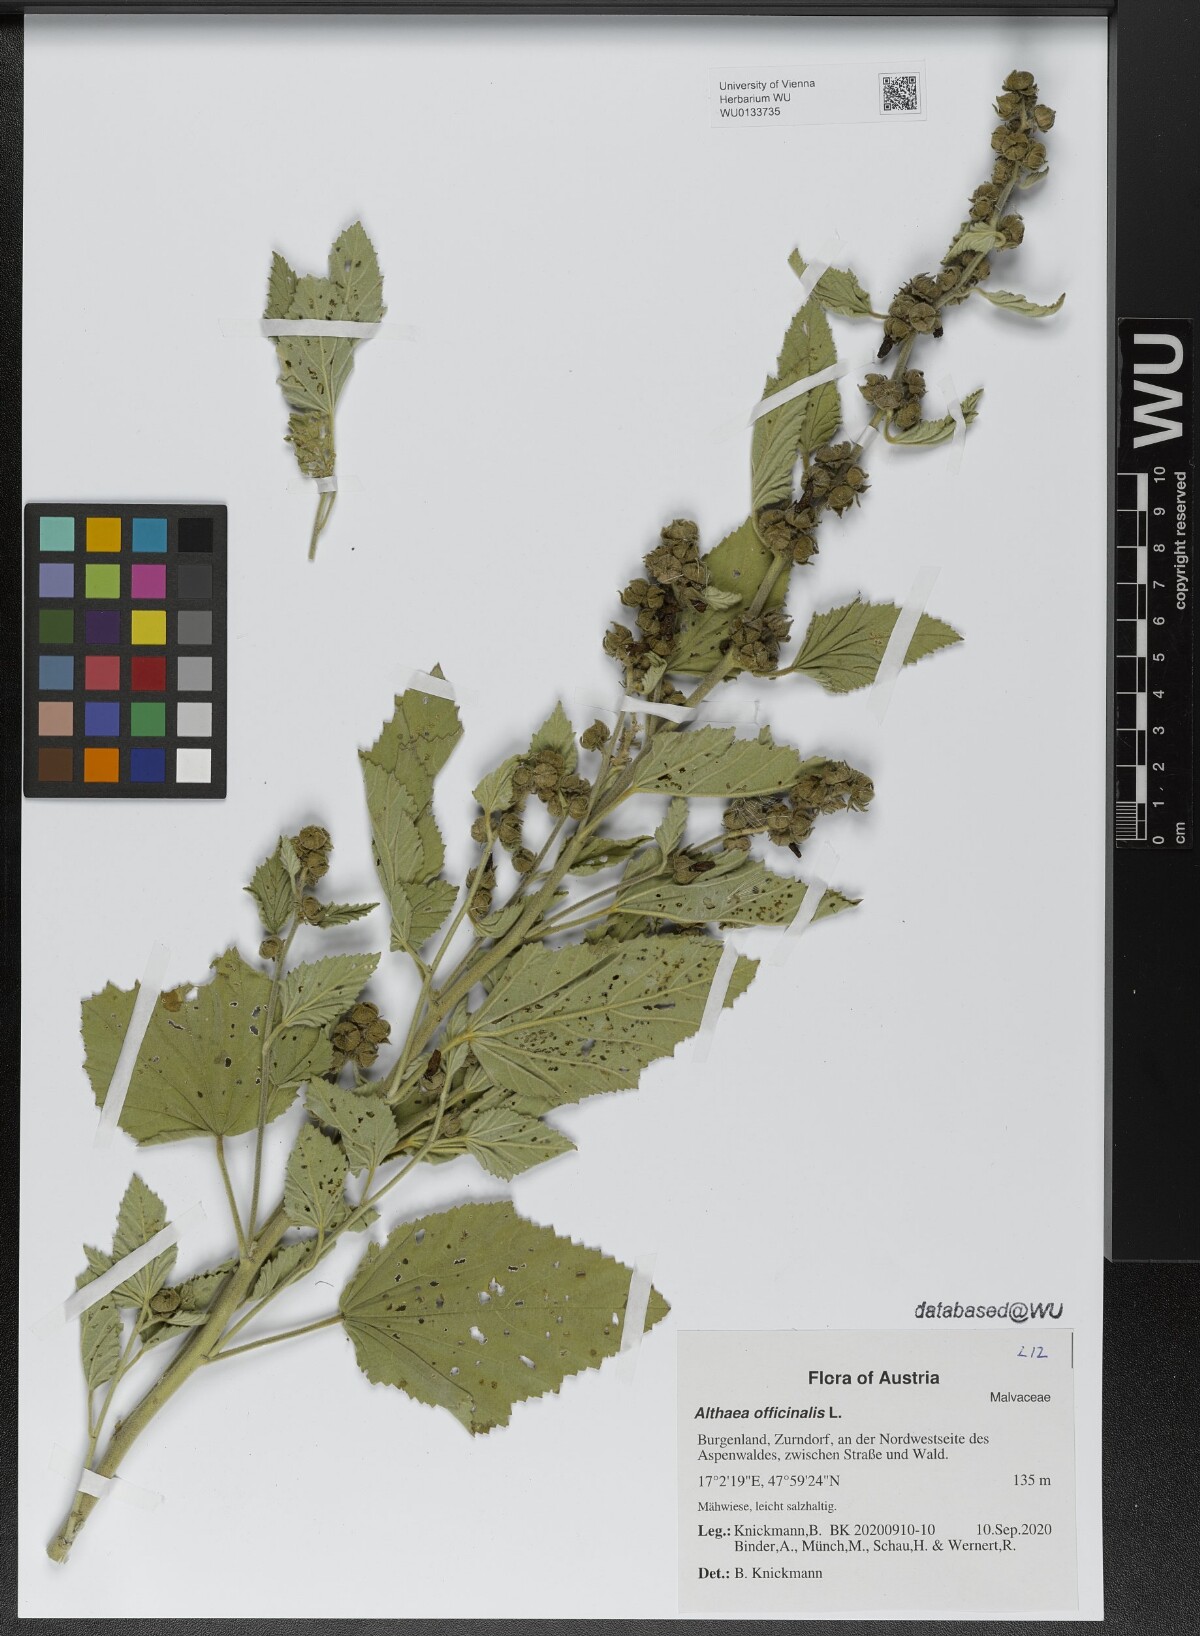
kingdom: Plantae
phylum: Tracheophyta
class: Magnoliopsida
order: Malvales
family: Malvaceae
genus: Althaea
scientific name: Althaea officinalis
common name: Marsh-mallow
